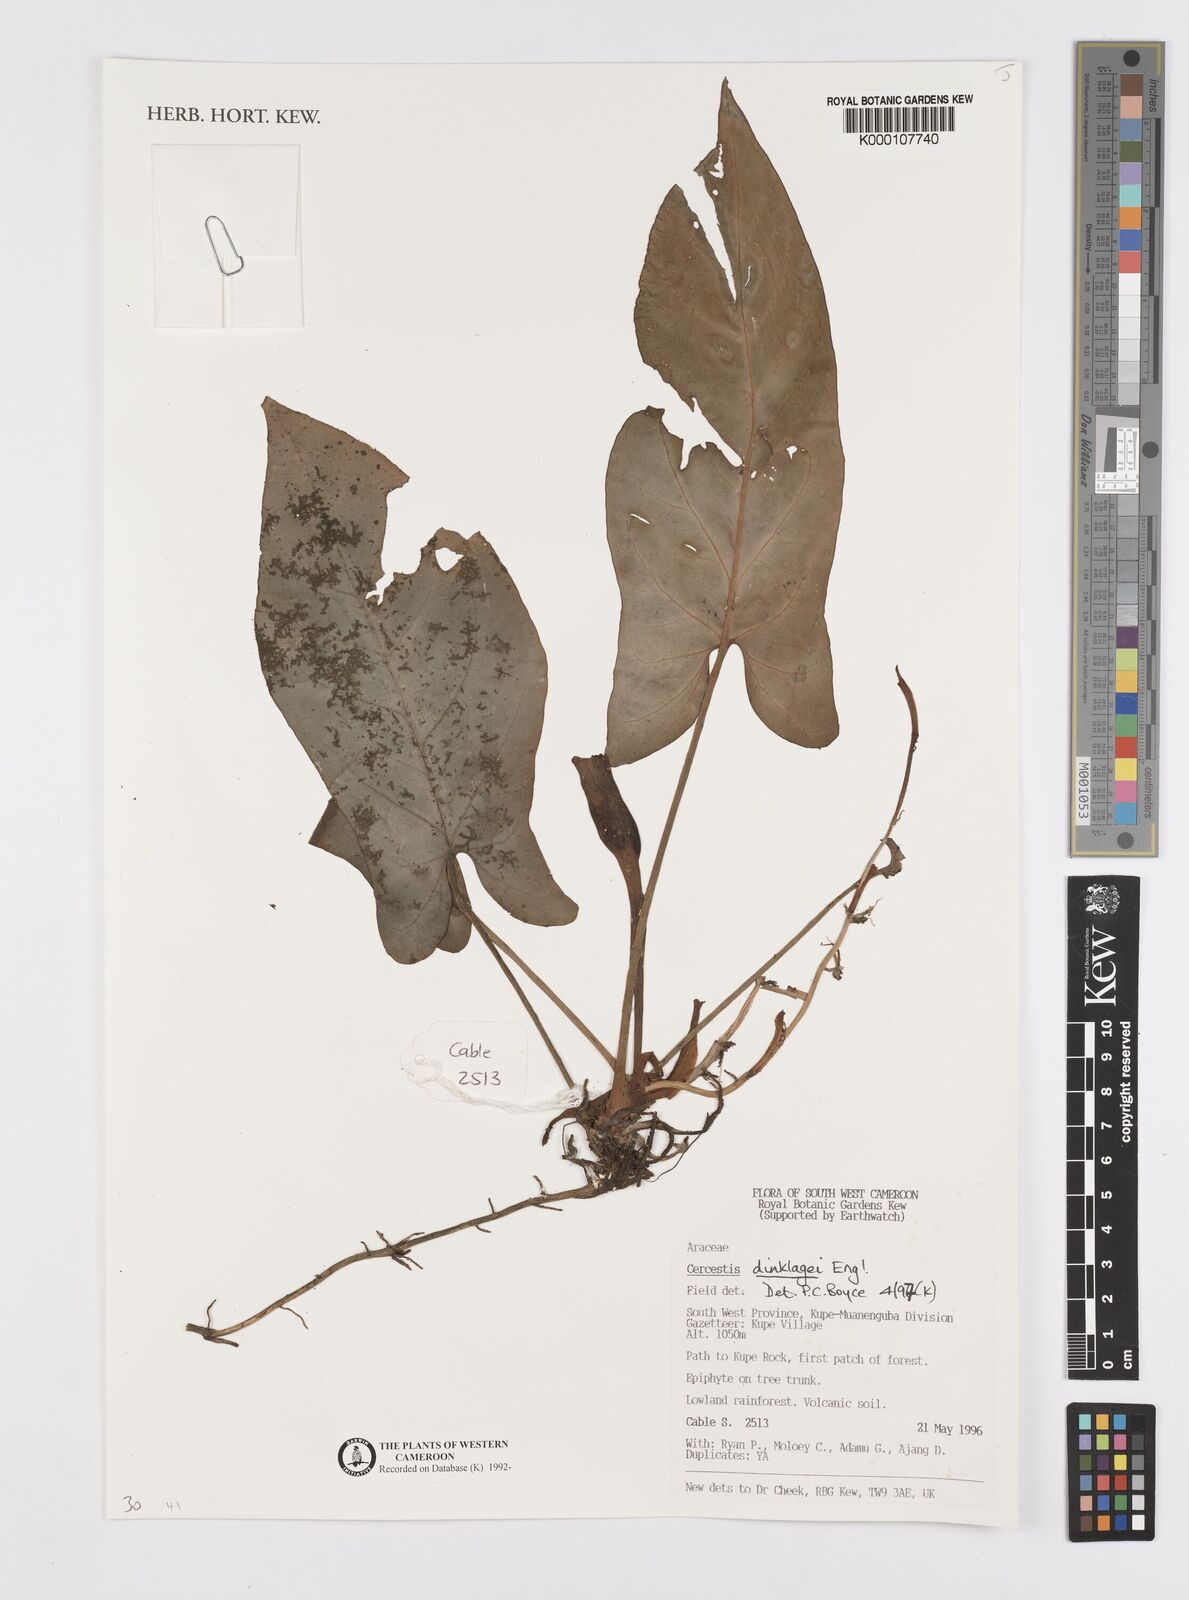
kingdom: Plantae
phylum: Tracheophyta
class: Liliopsida
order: Alismatales
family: Araceae
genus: Cercestis
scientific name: Cercestis dinklagei
